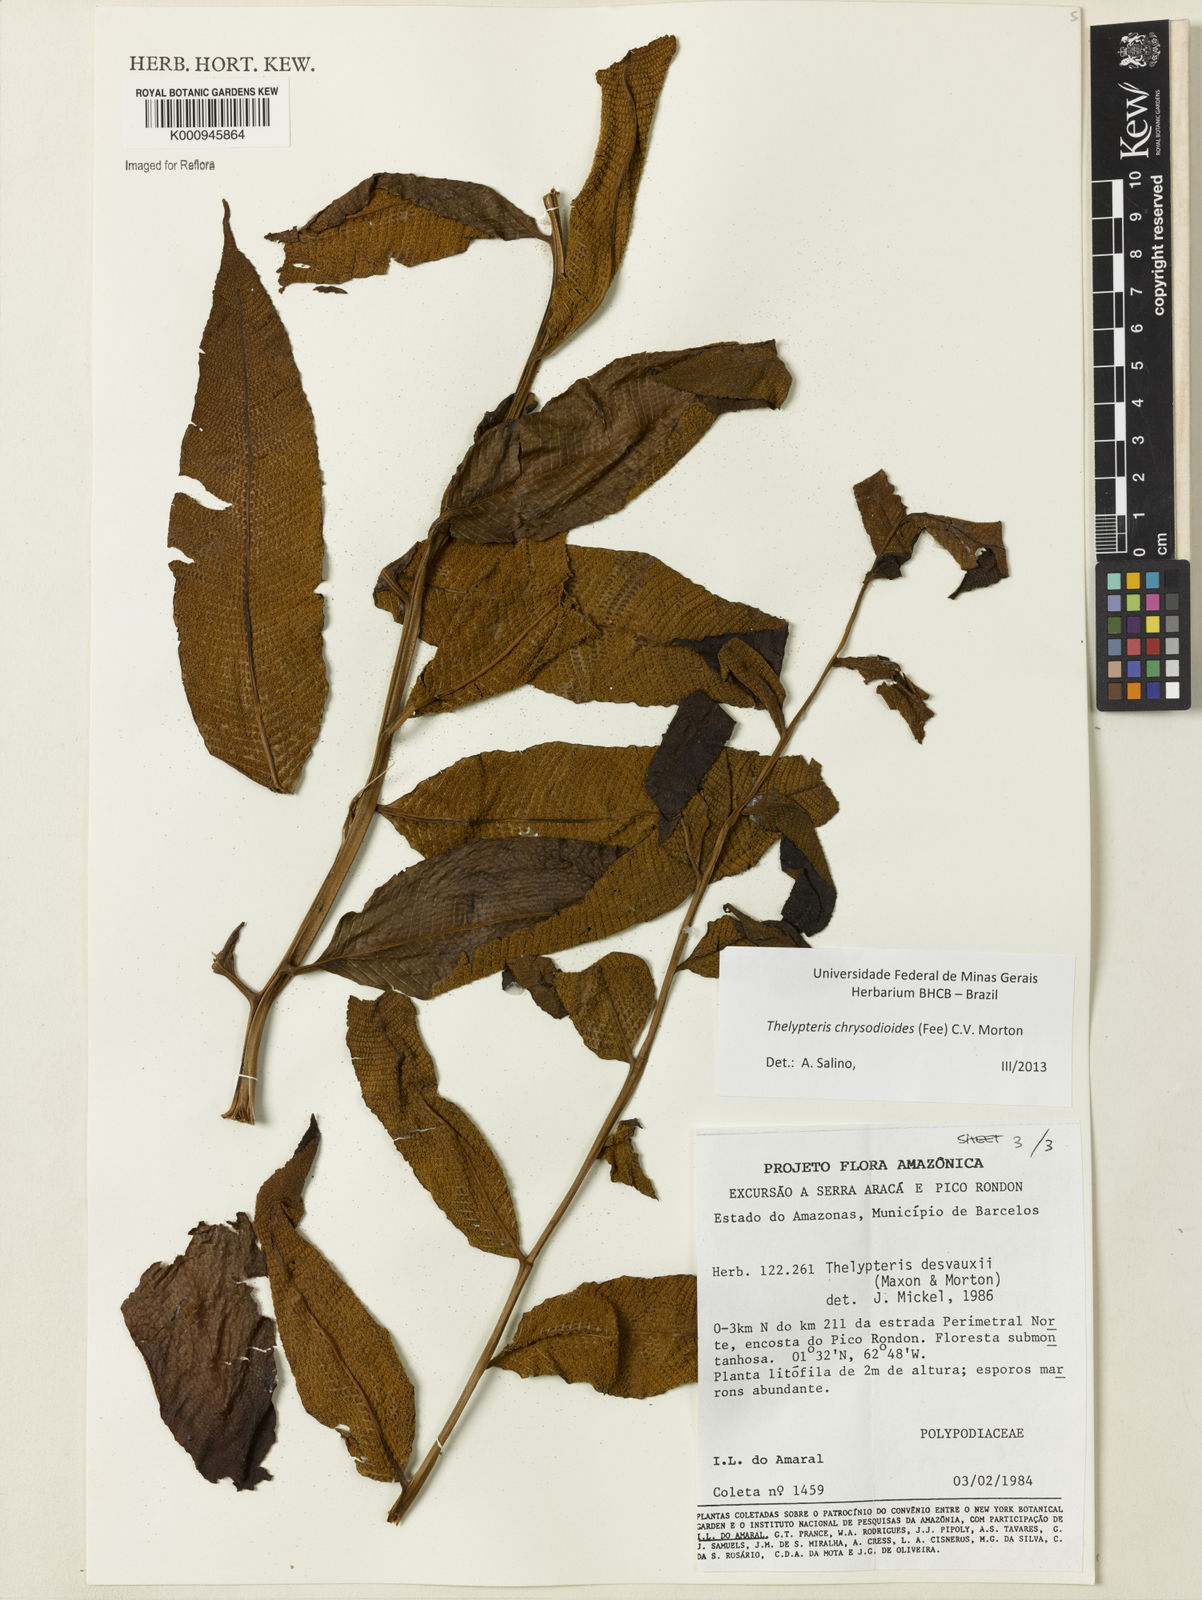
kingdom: Plantae
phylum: Tracheophyta
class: Polypodiopsida
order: Polypodiales
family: Thelypteridaceae
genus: Meniscium
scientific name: Meniscium
